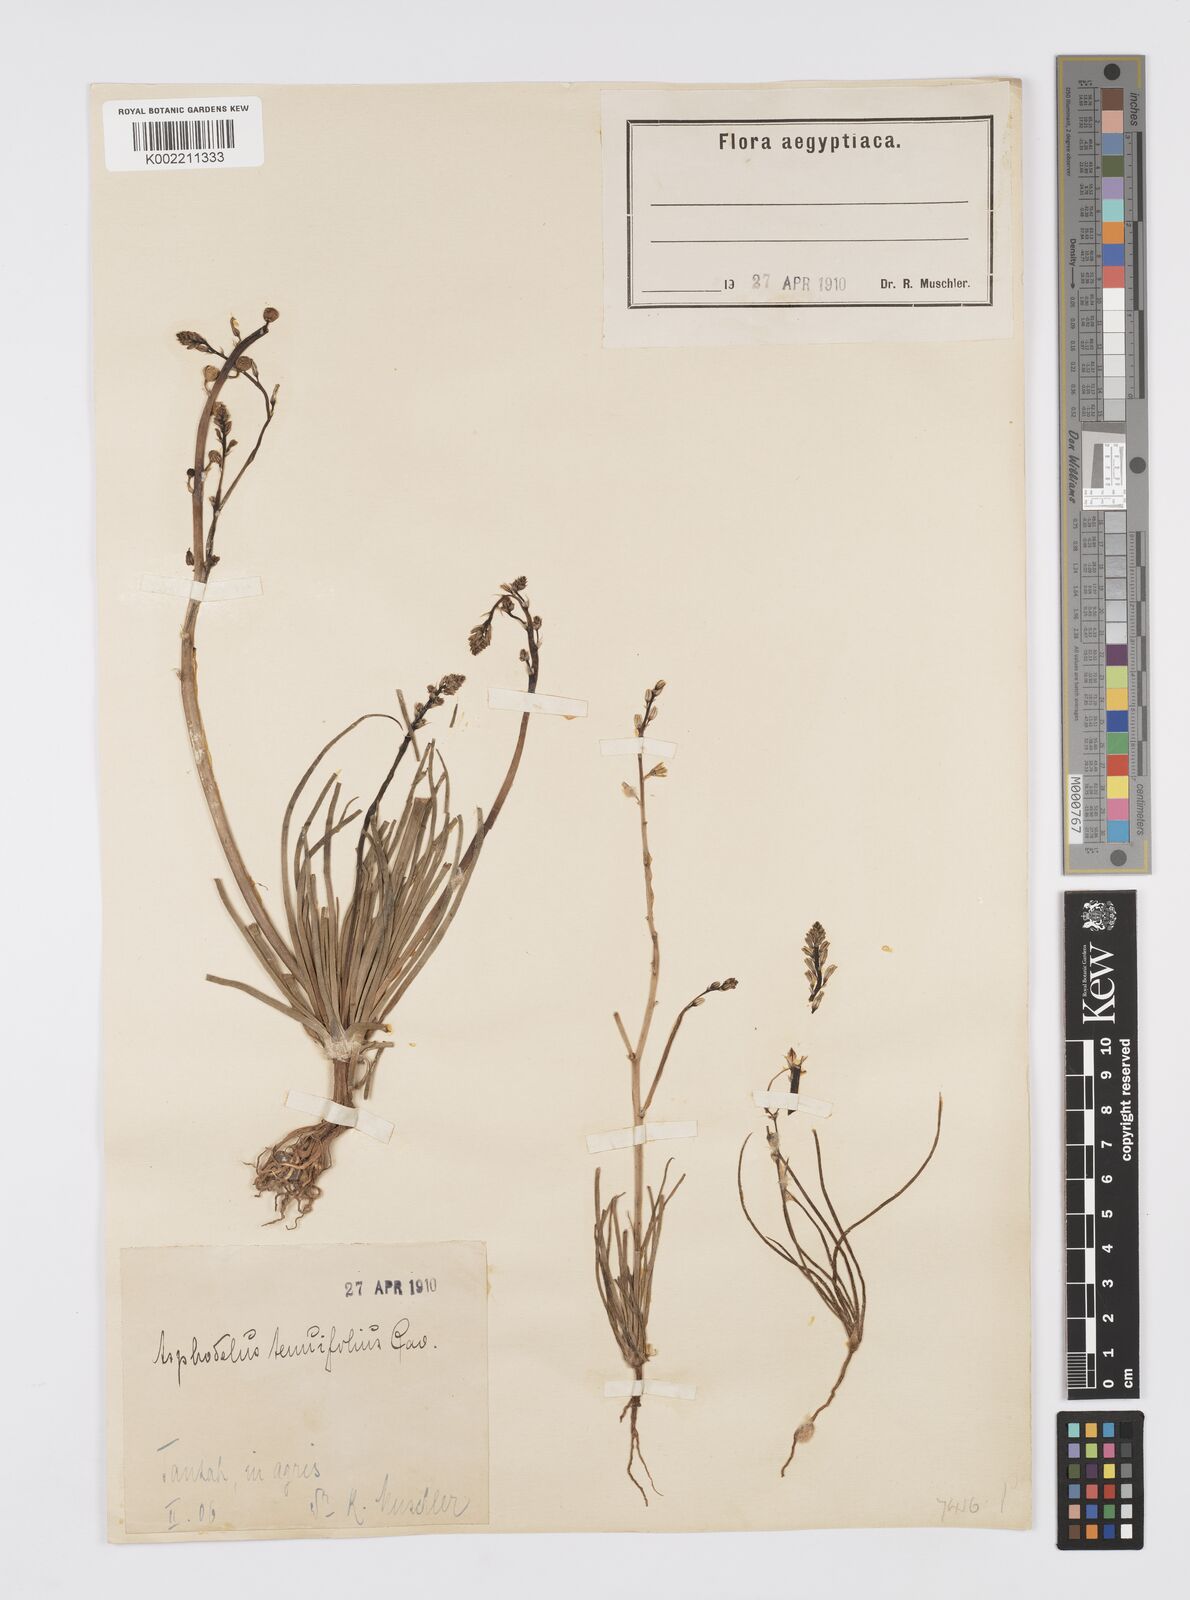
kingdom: Plantae
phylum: Tracheophyta
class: Liliopsida
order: Asparagales
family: Asphodelaceae
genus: Asphodelus
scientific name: Asphodelus tenuifolius
